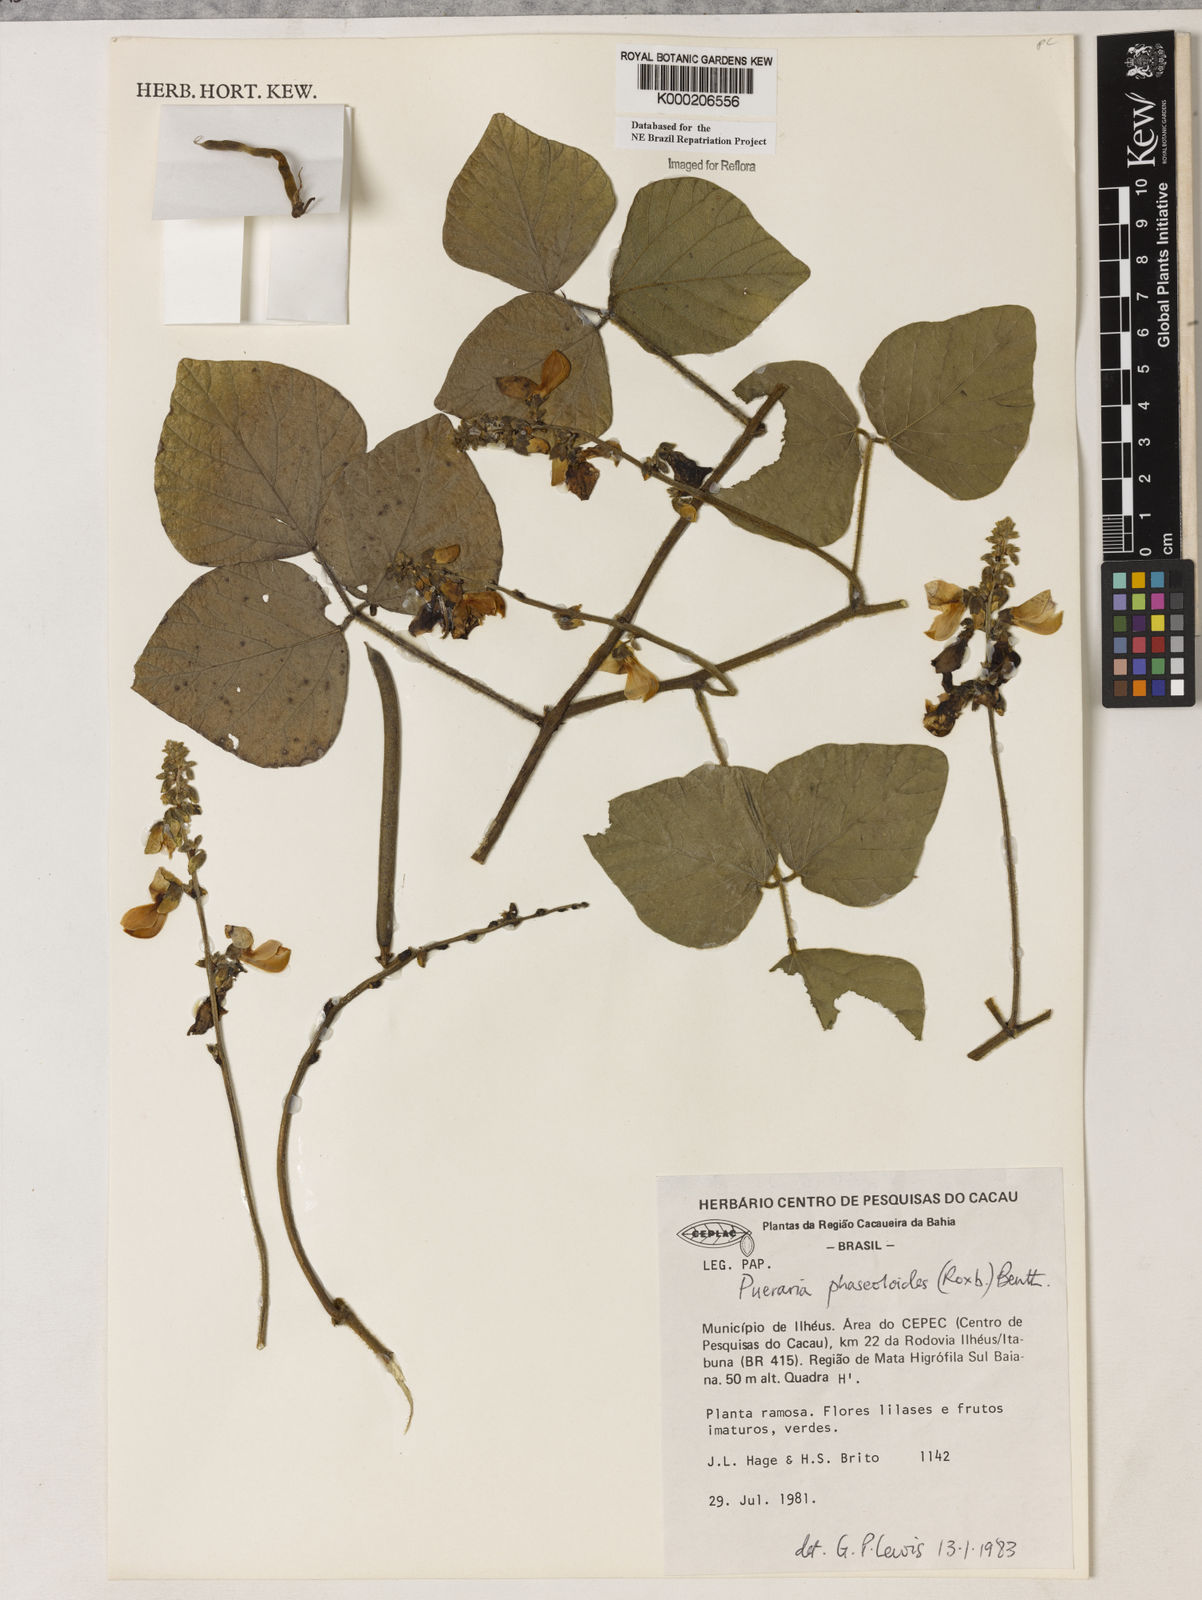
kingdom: Plantae
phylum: Tracheophyta
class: Magnoliopsida
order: Fabales
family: Fabaceae
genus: Neustanthus
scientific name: Neustanthus phaseoloides
